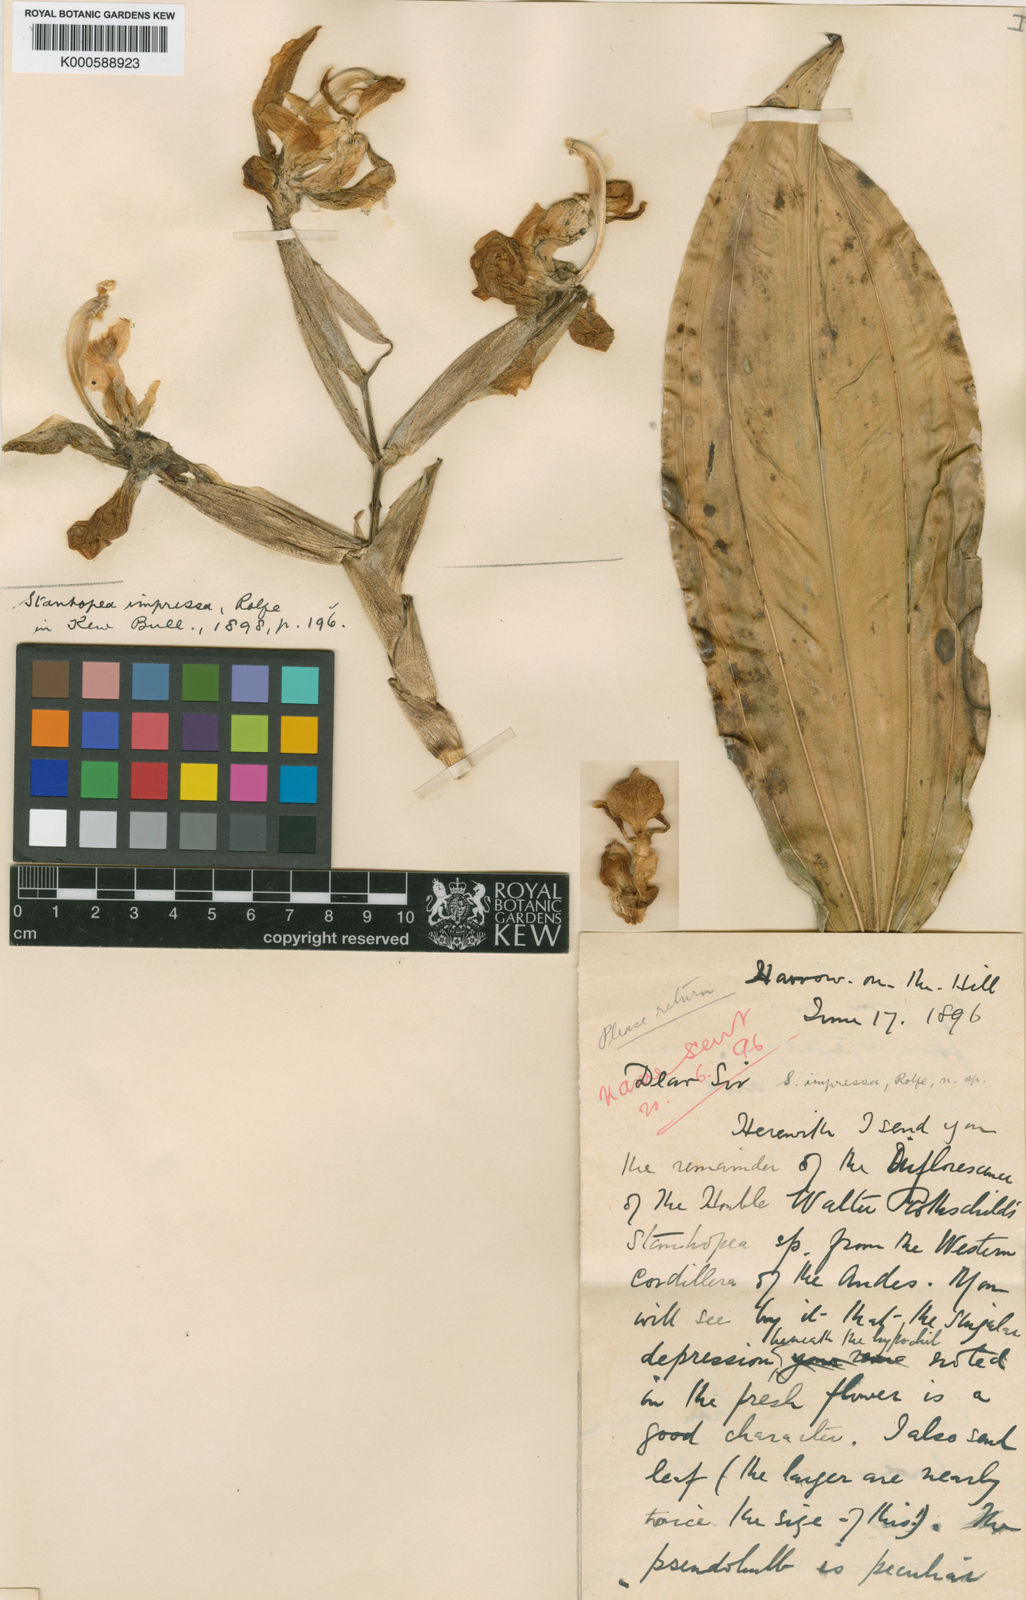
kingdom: Plantae
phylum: Tracheophyta
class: Liliopsida
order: Asparagales
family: Orchidaceae
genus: Stanhopea
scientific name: Stanhopea gibbosa
